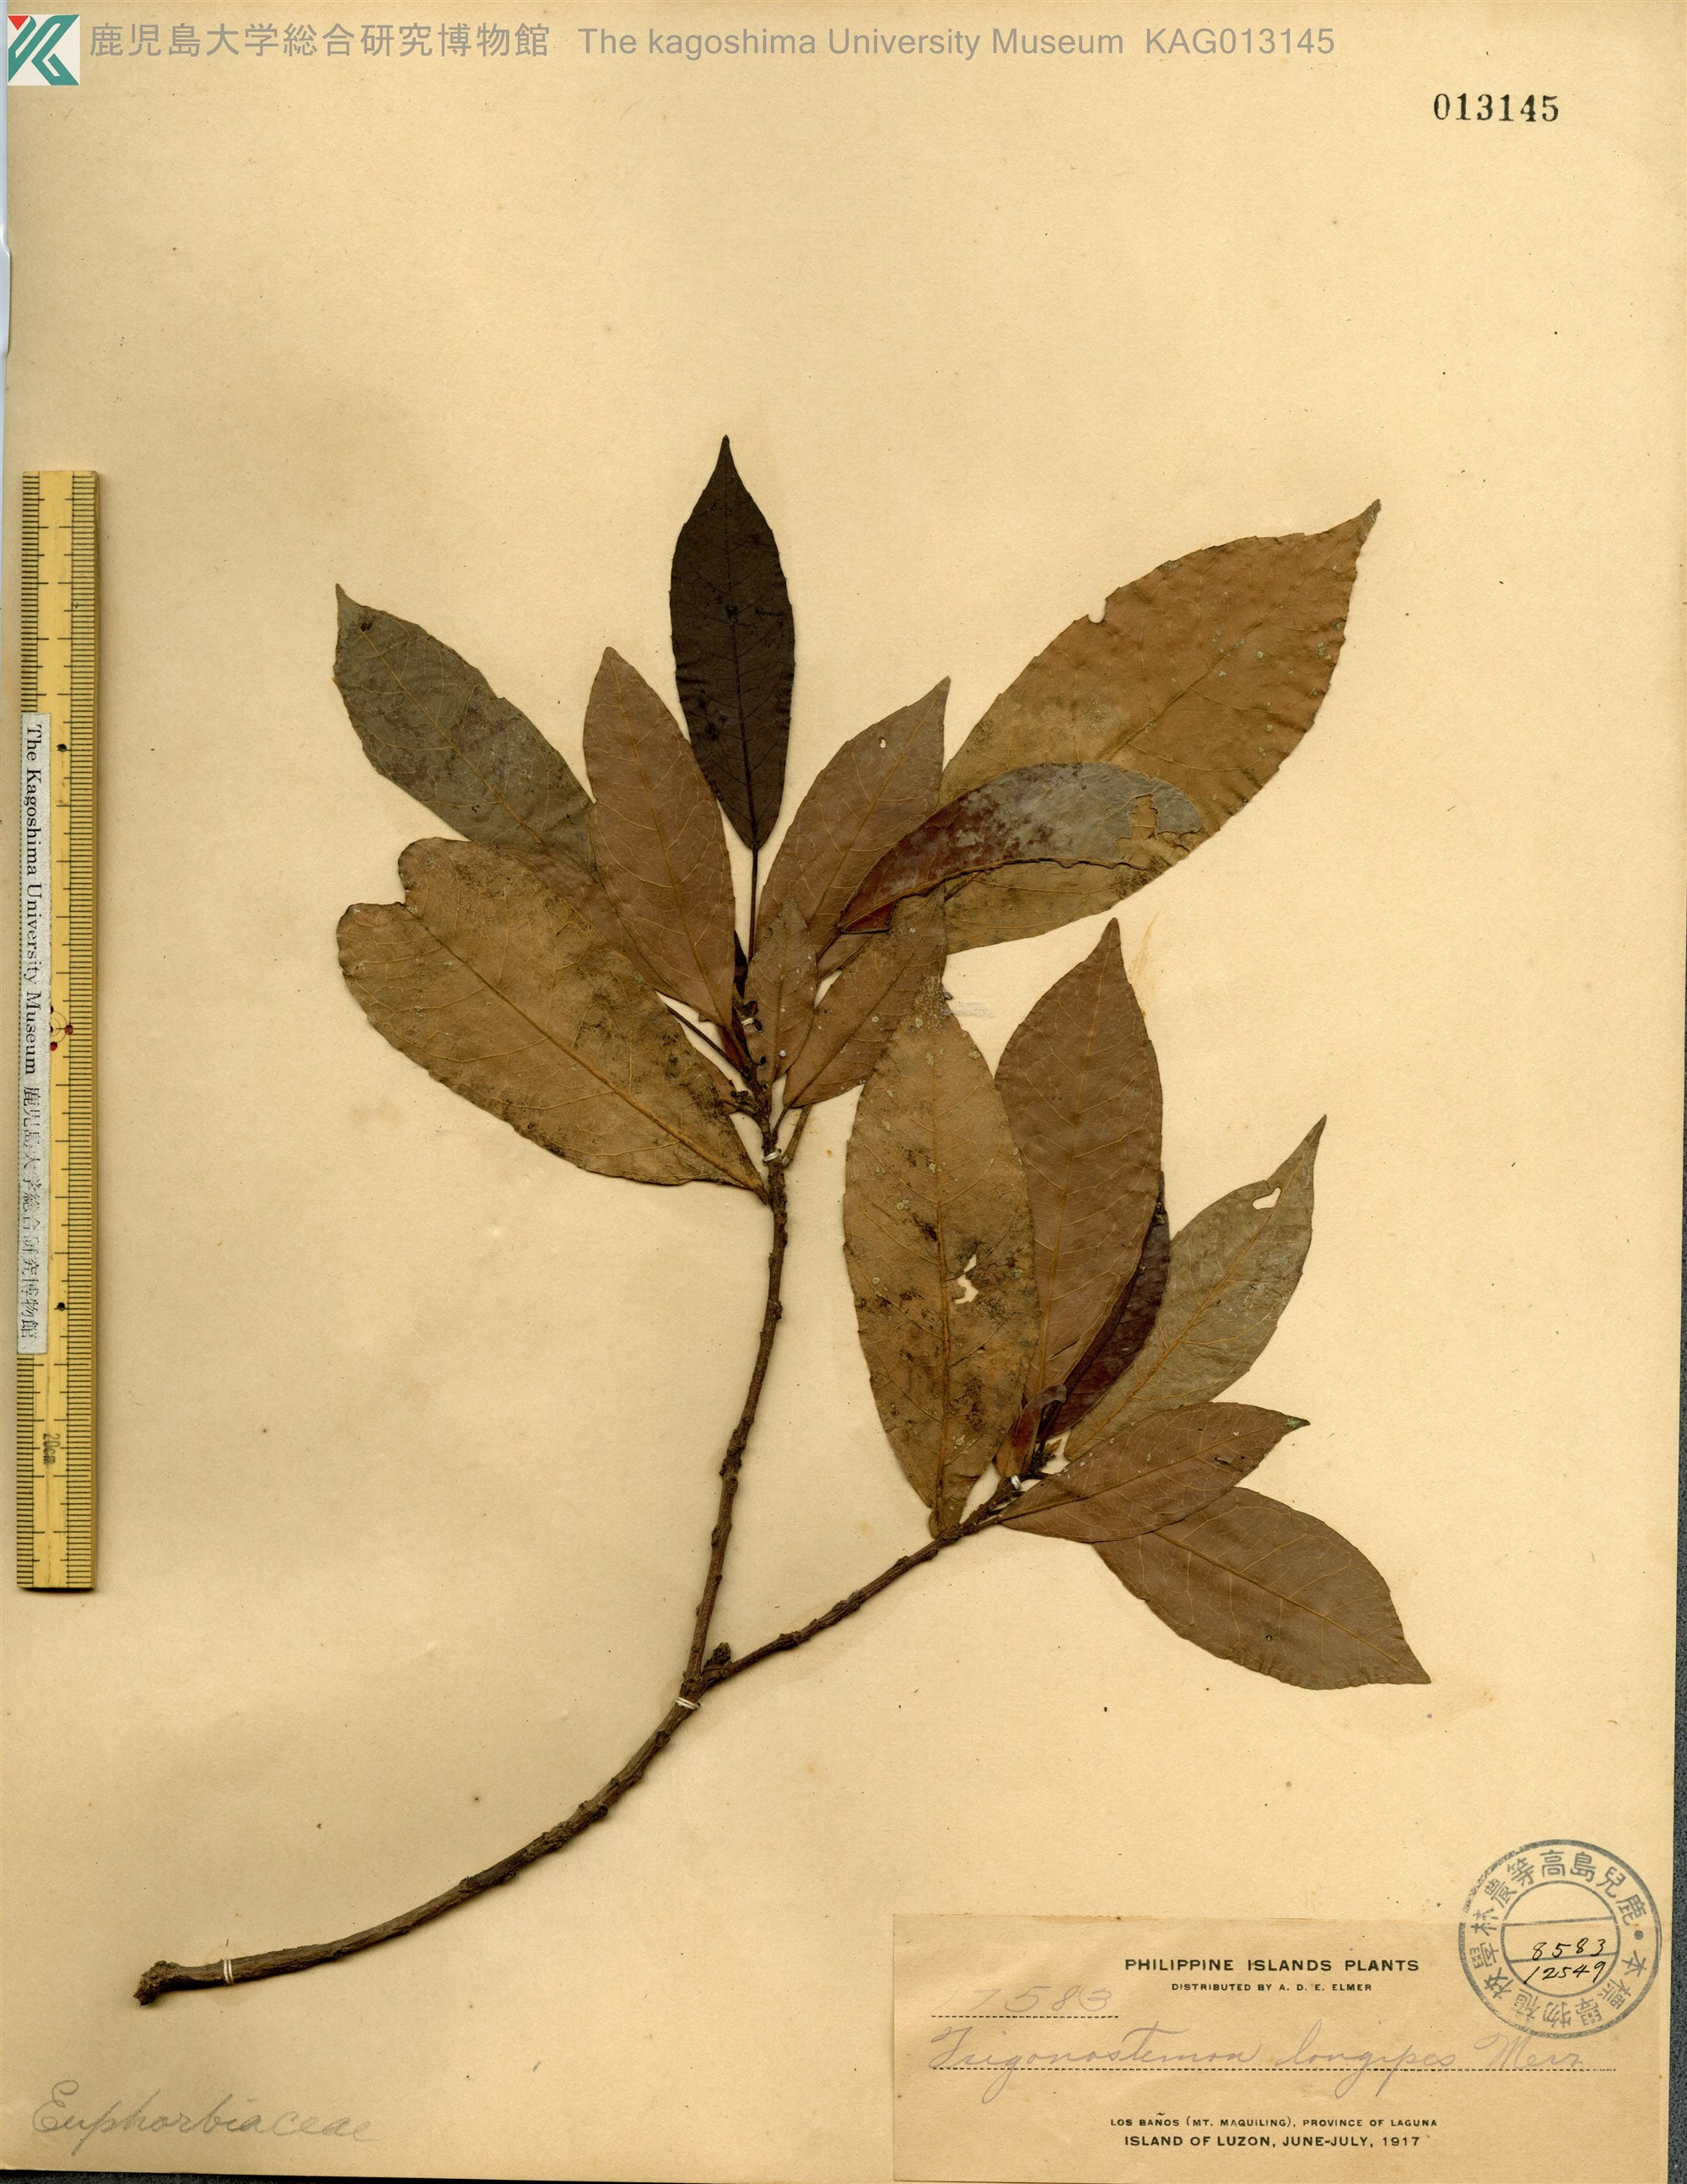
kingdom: Plantae
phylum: Tracheophyta
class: Magnoliopsida
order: Malpighiales
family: Euphorbiaceae
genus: Trigonostemon
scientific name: Trigonostemon longipes
